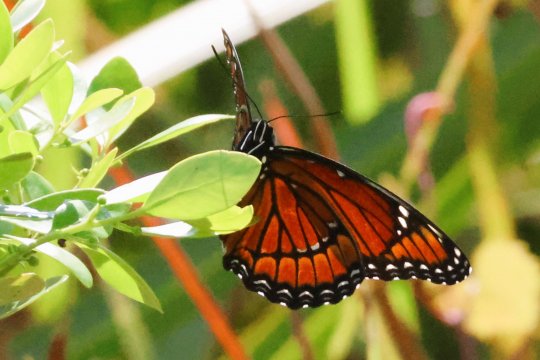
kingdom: Animalia
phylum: Arthropoda
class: Insecta
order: Lepidoptera
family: Nymphalidae
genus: Limenitis
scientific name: Limenitis archippus
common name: Viceroy
